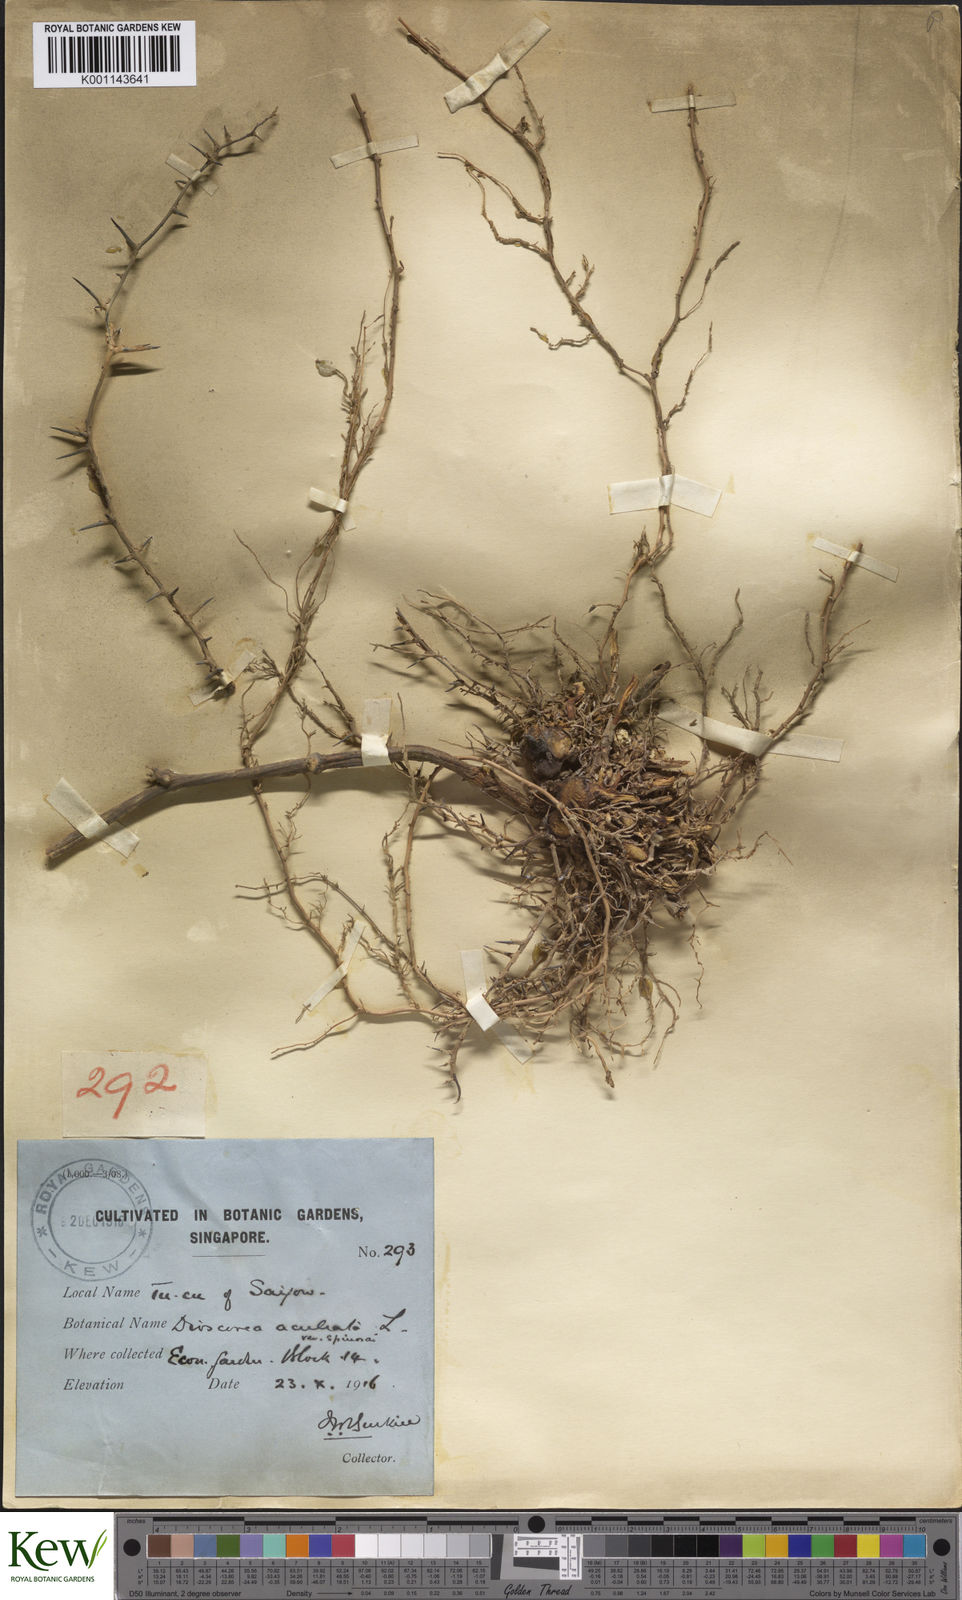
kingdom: Plantae
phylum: Tracheophyta
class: Liliopsida
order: Dioscoreales
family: Dioscoreaceae
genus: Dioscorea
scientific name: Dioscorea esculenta
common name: Chinese yam
